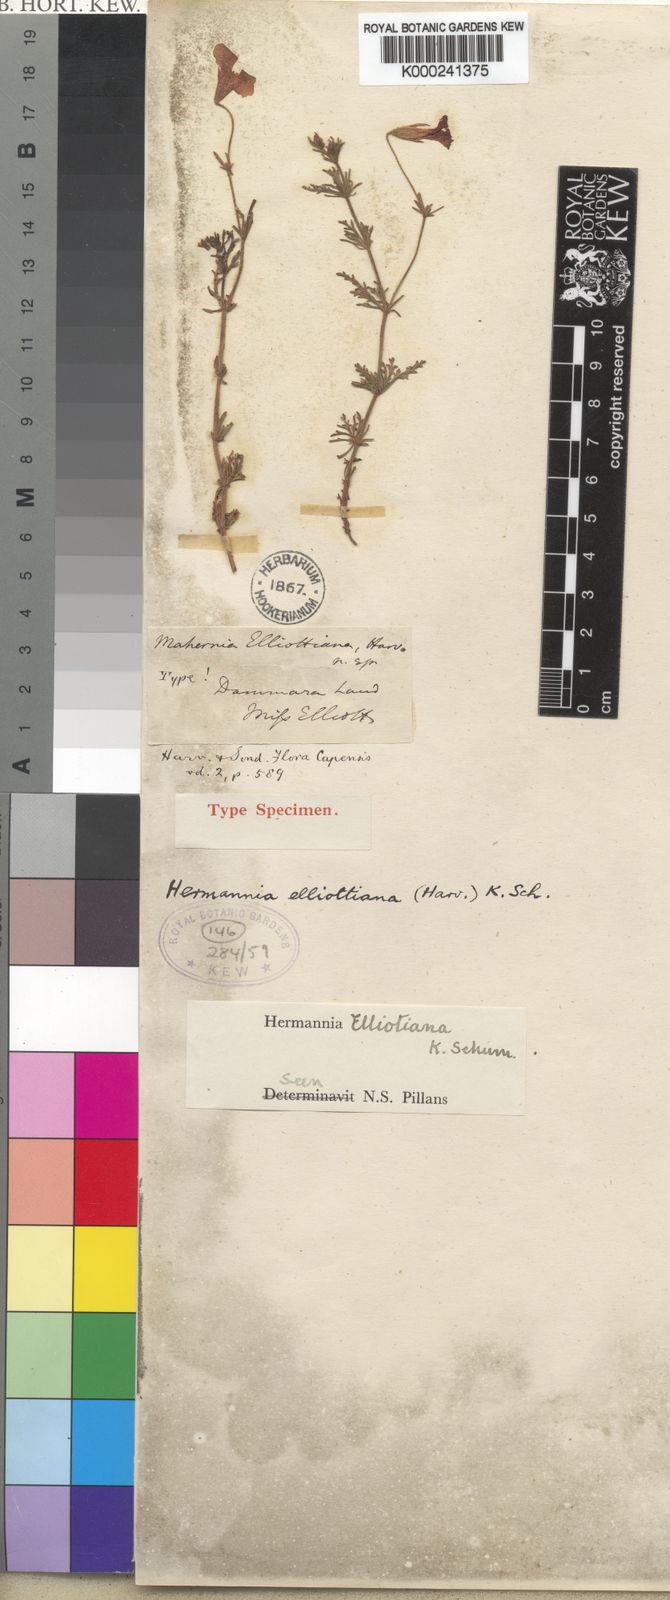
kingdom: Plantae
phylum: Tracheophyta
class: Magnoliopsida
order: Malvales
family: Malvaceae
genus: Hermannia
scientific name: Hermannia
